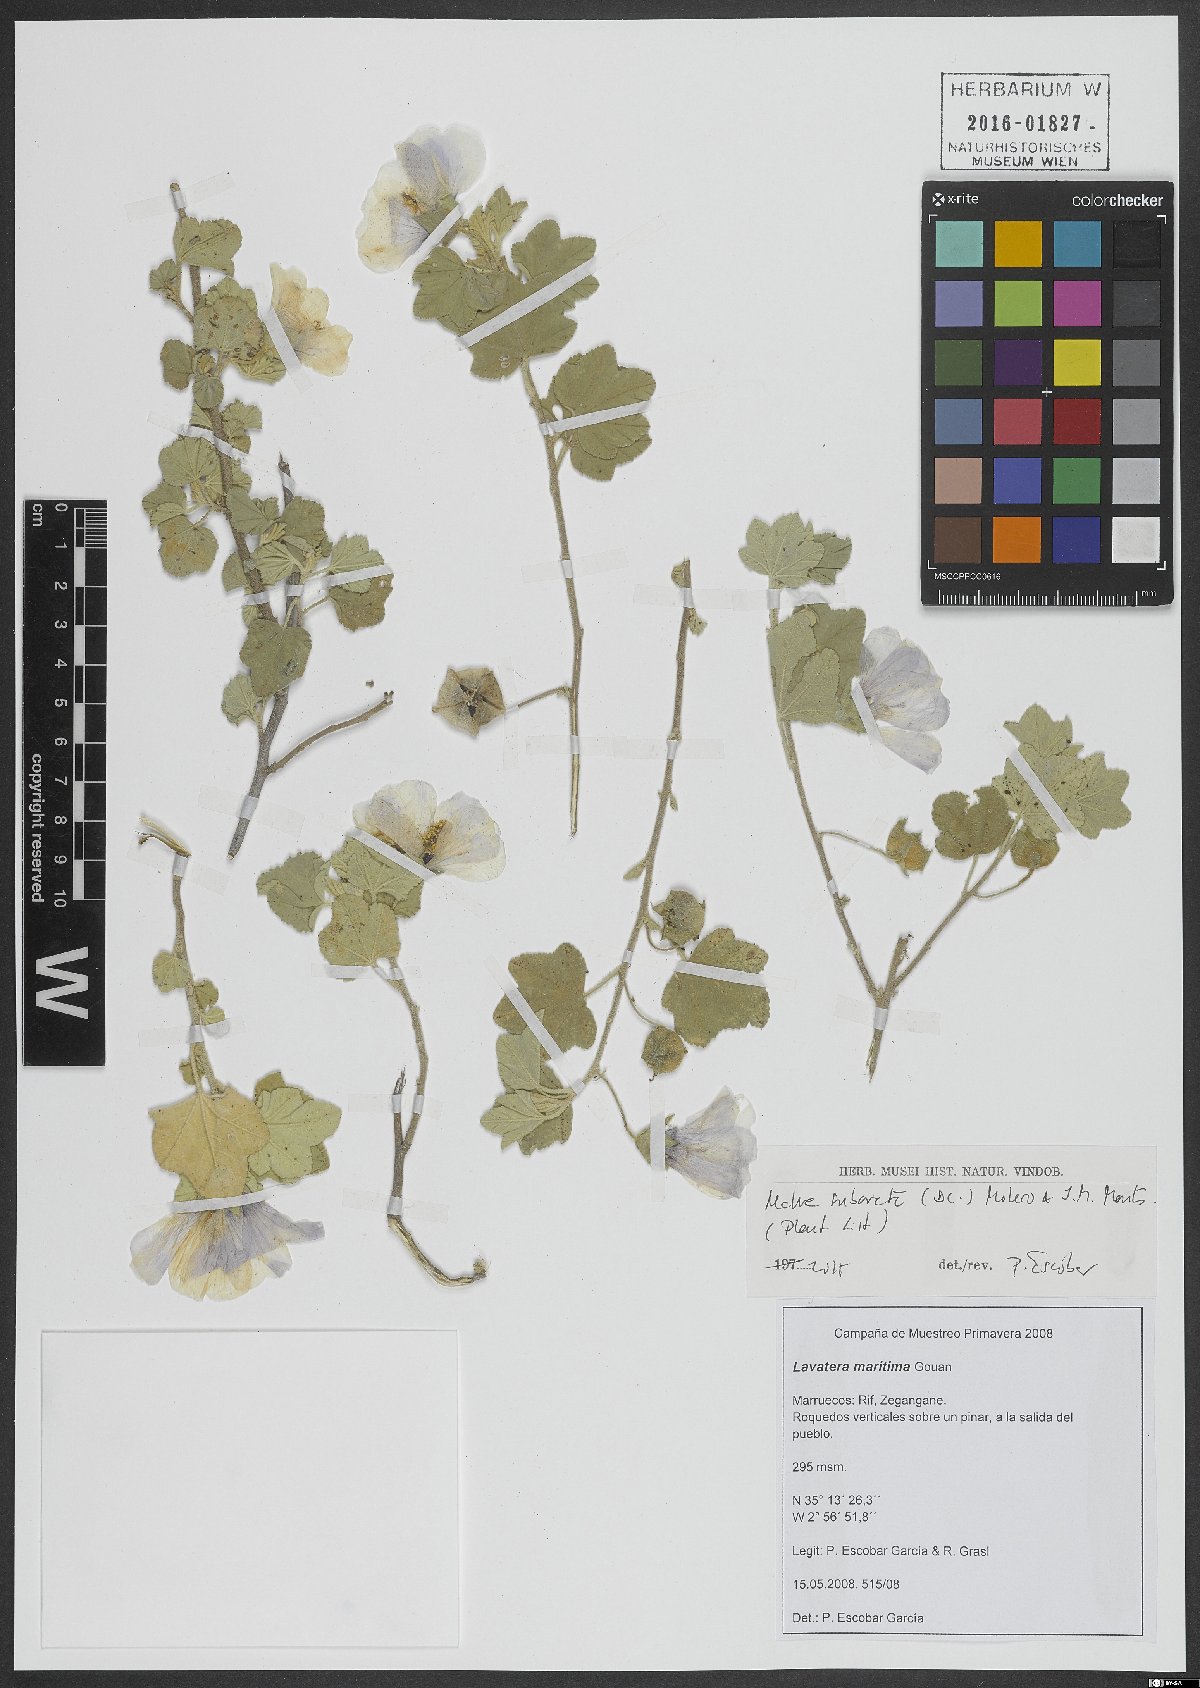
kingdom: Plantae
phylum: Tracheophyta
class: Magnoliopsida
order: Malvales
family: Malvaceae
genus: Malva
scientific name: Malva subovata
